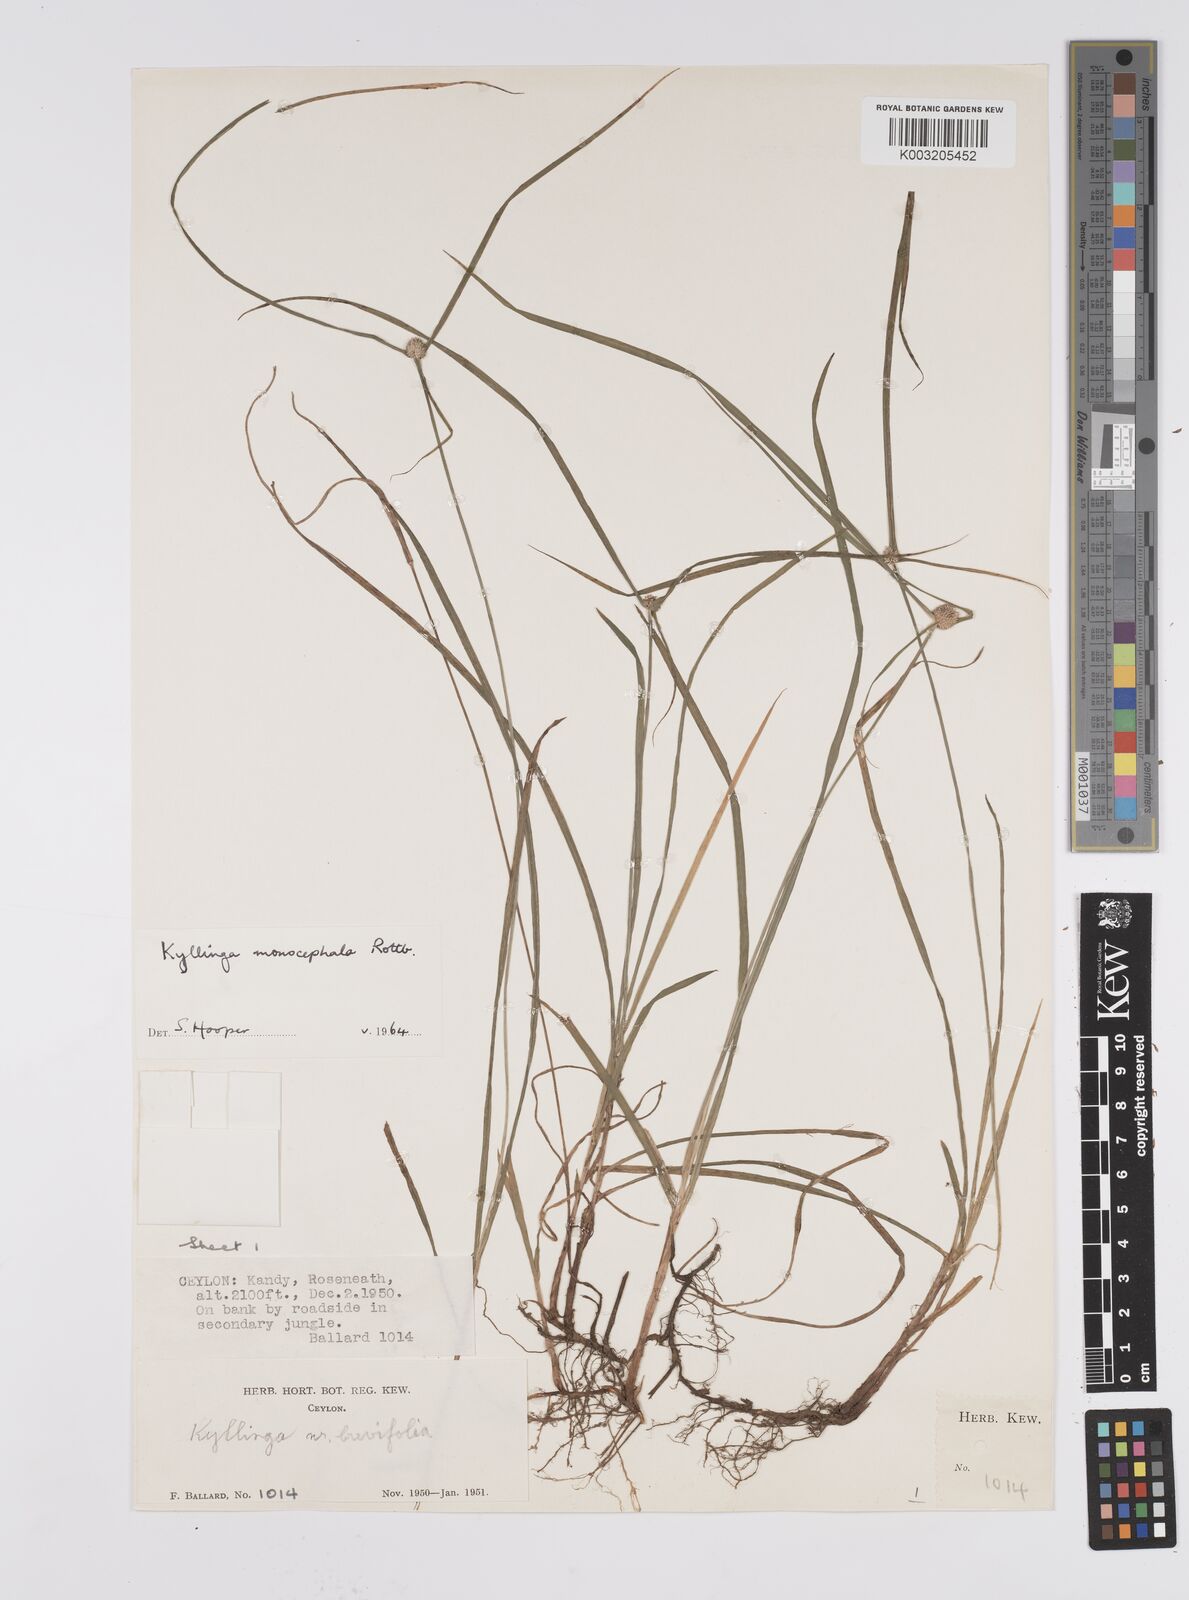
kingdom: Plantae
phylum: Tracheophyta
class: Liliopsida
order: Poales
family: Cyperaceae
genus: Cyperus
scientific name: Cyperus
